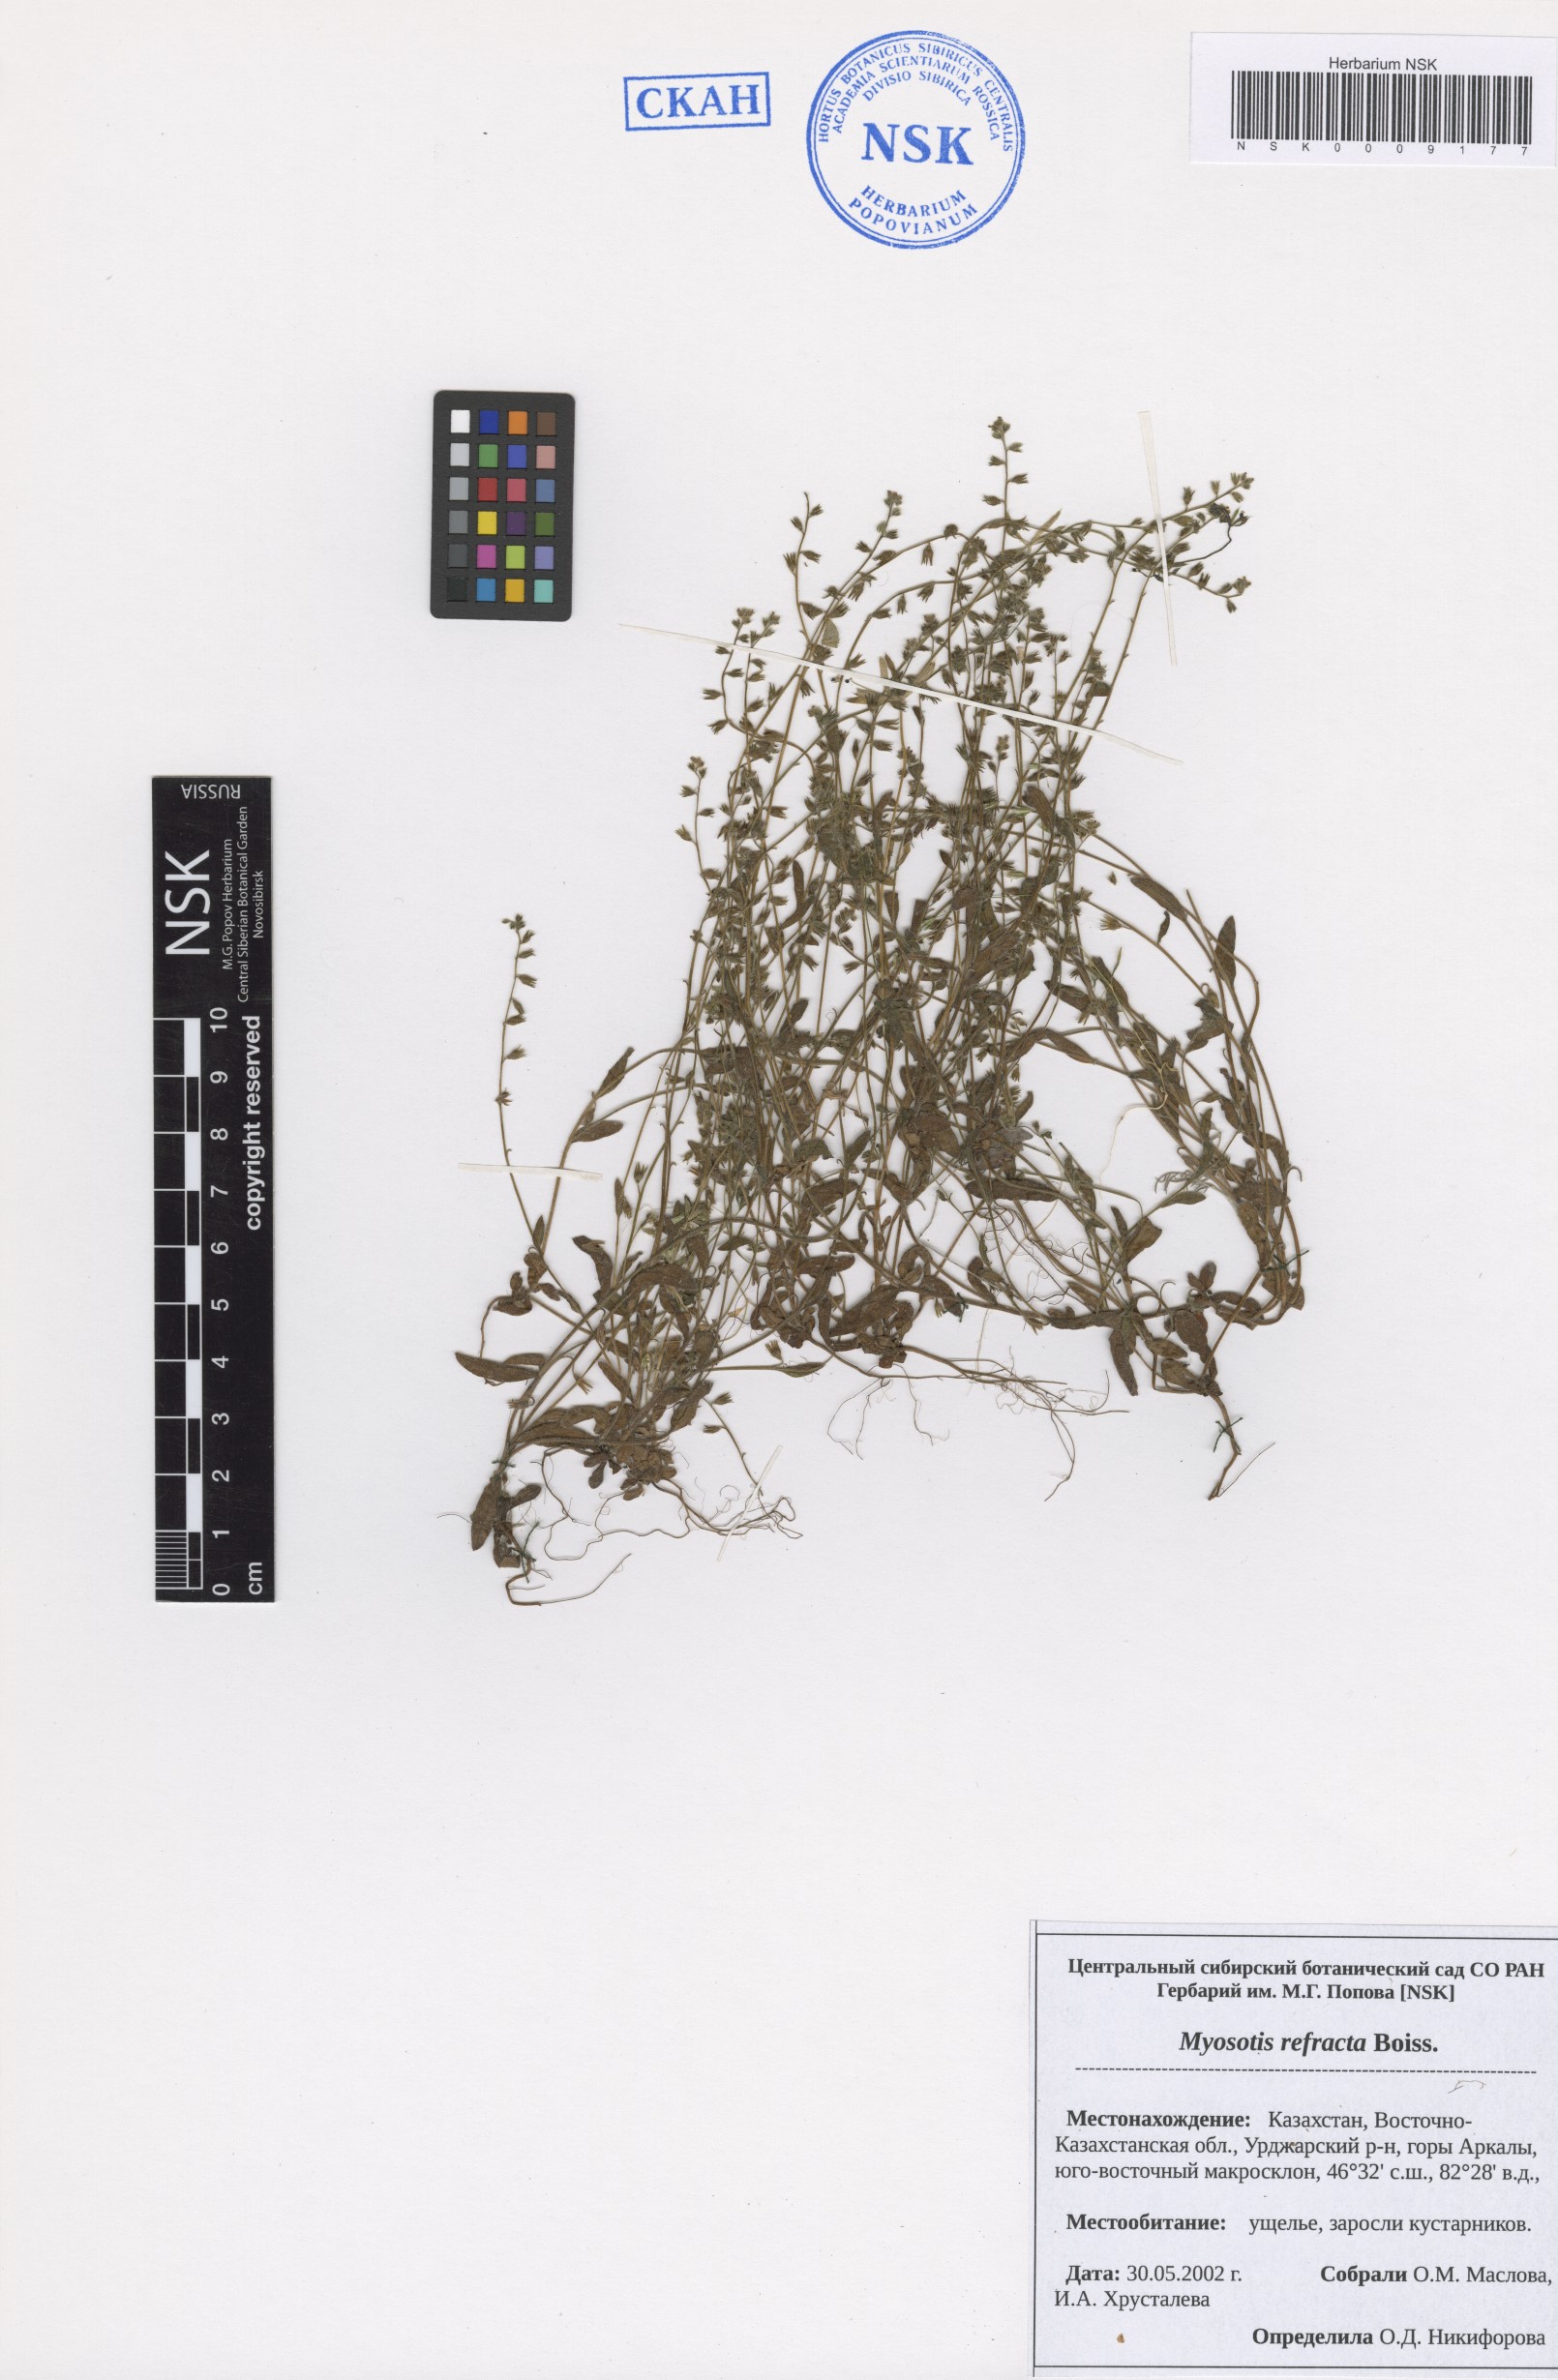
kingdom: Plantae
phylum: Tracheophyta
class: Magnoliopsida
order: Boraginales
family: Boraginaceae
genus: Myosotis
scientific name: Myosotis refracta
